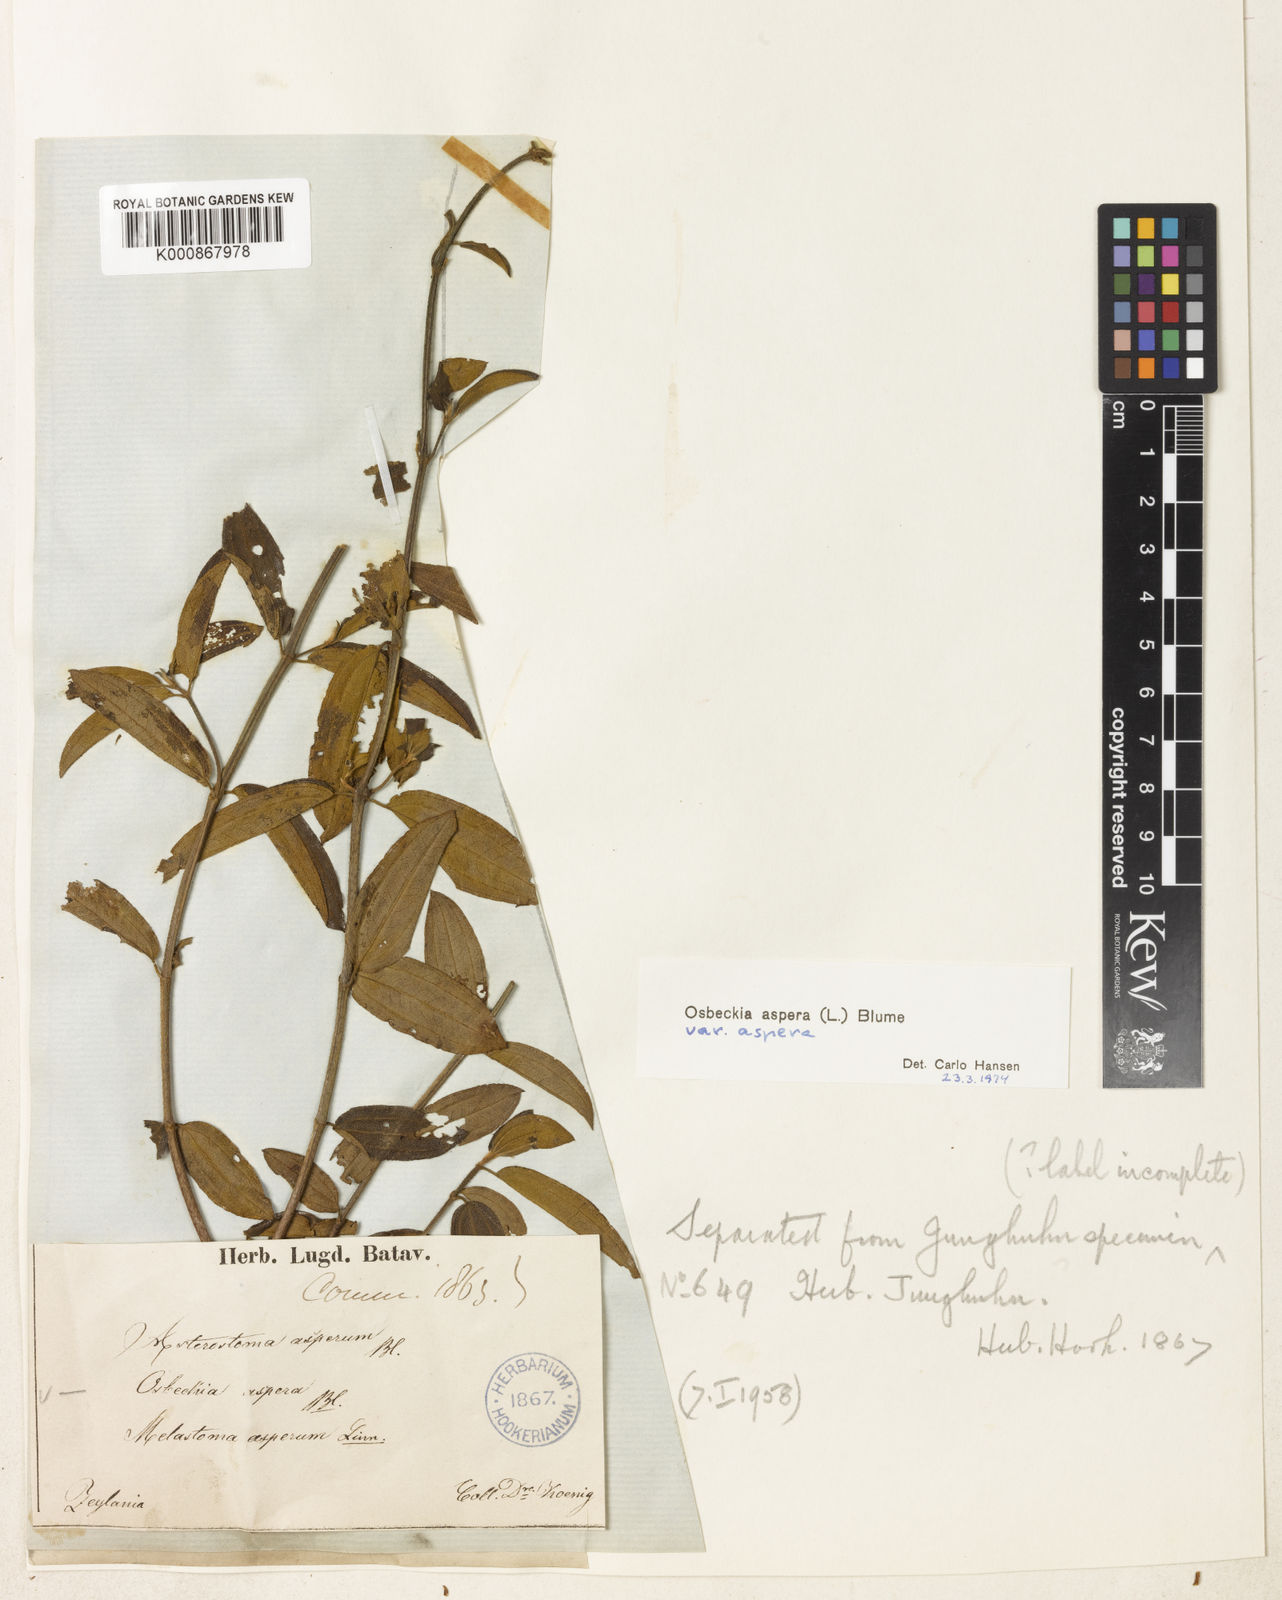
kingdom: Plantae
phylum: Tracheophyta
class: Magnoliopsida
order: Myrtales
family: Melastomataceae
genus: Osbeckia
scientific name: Osbeckia aspera
